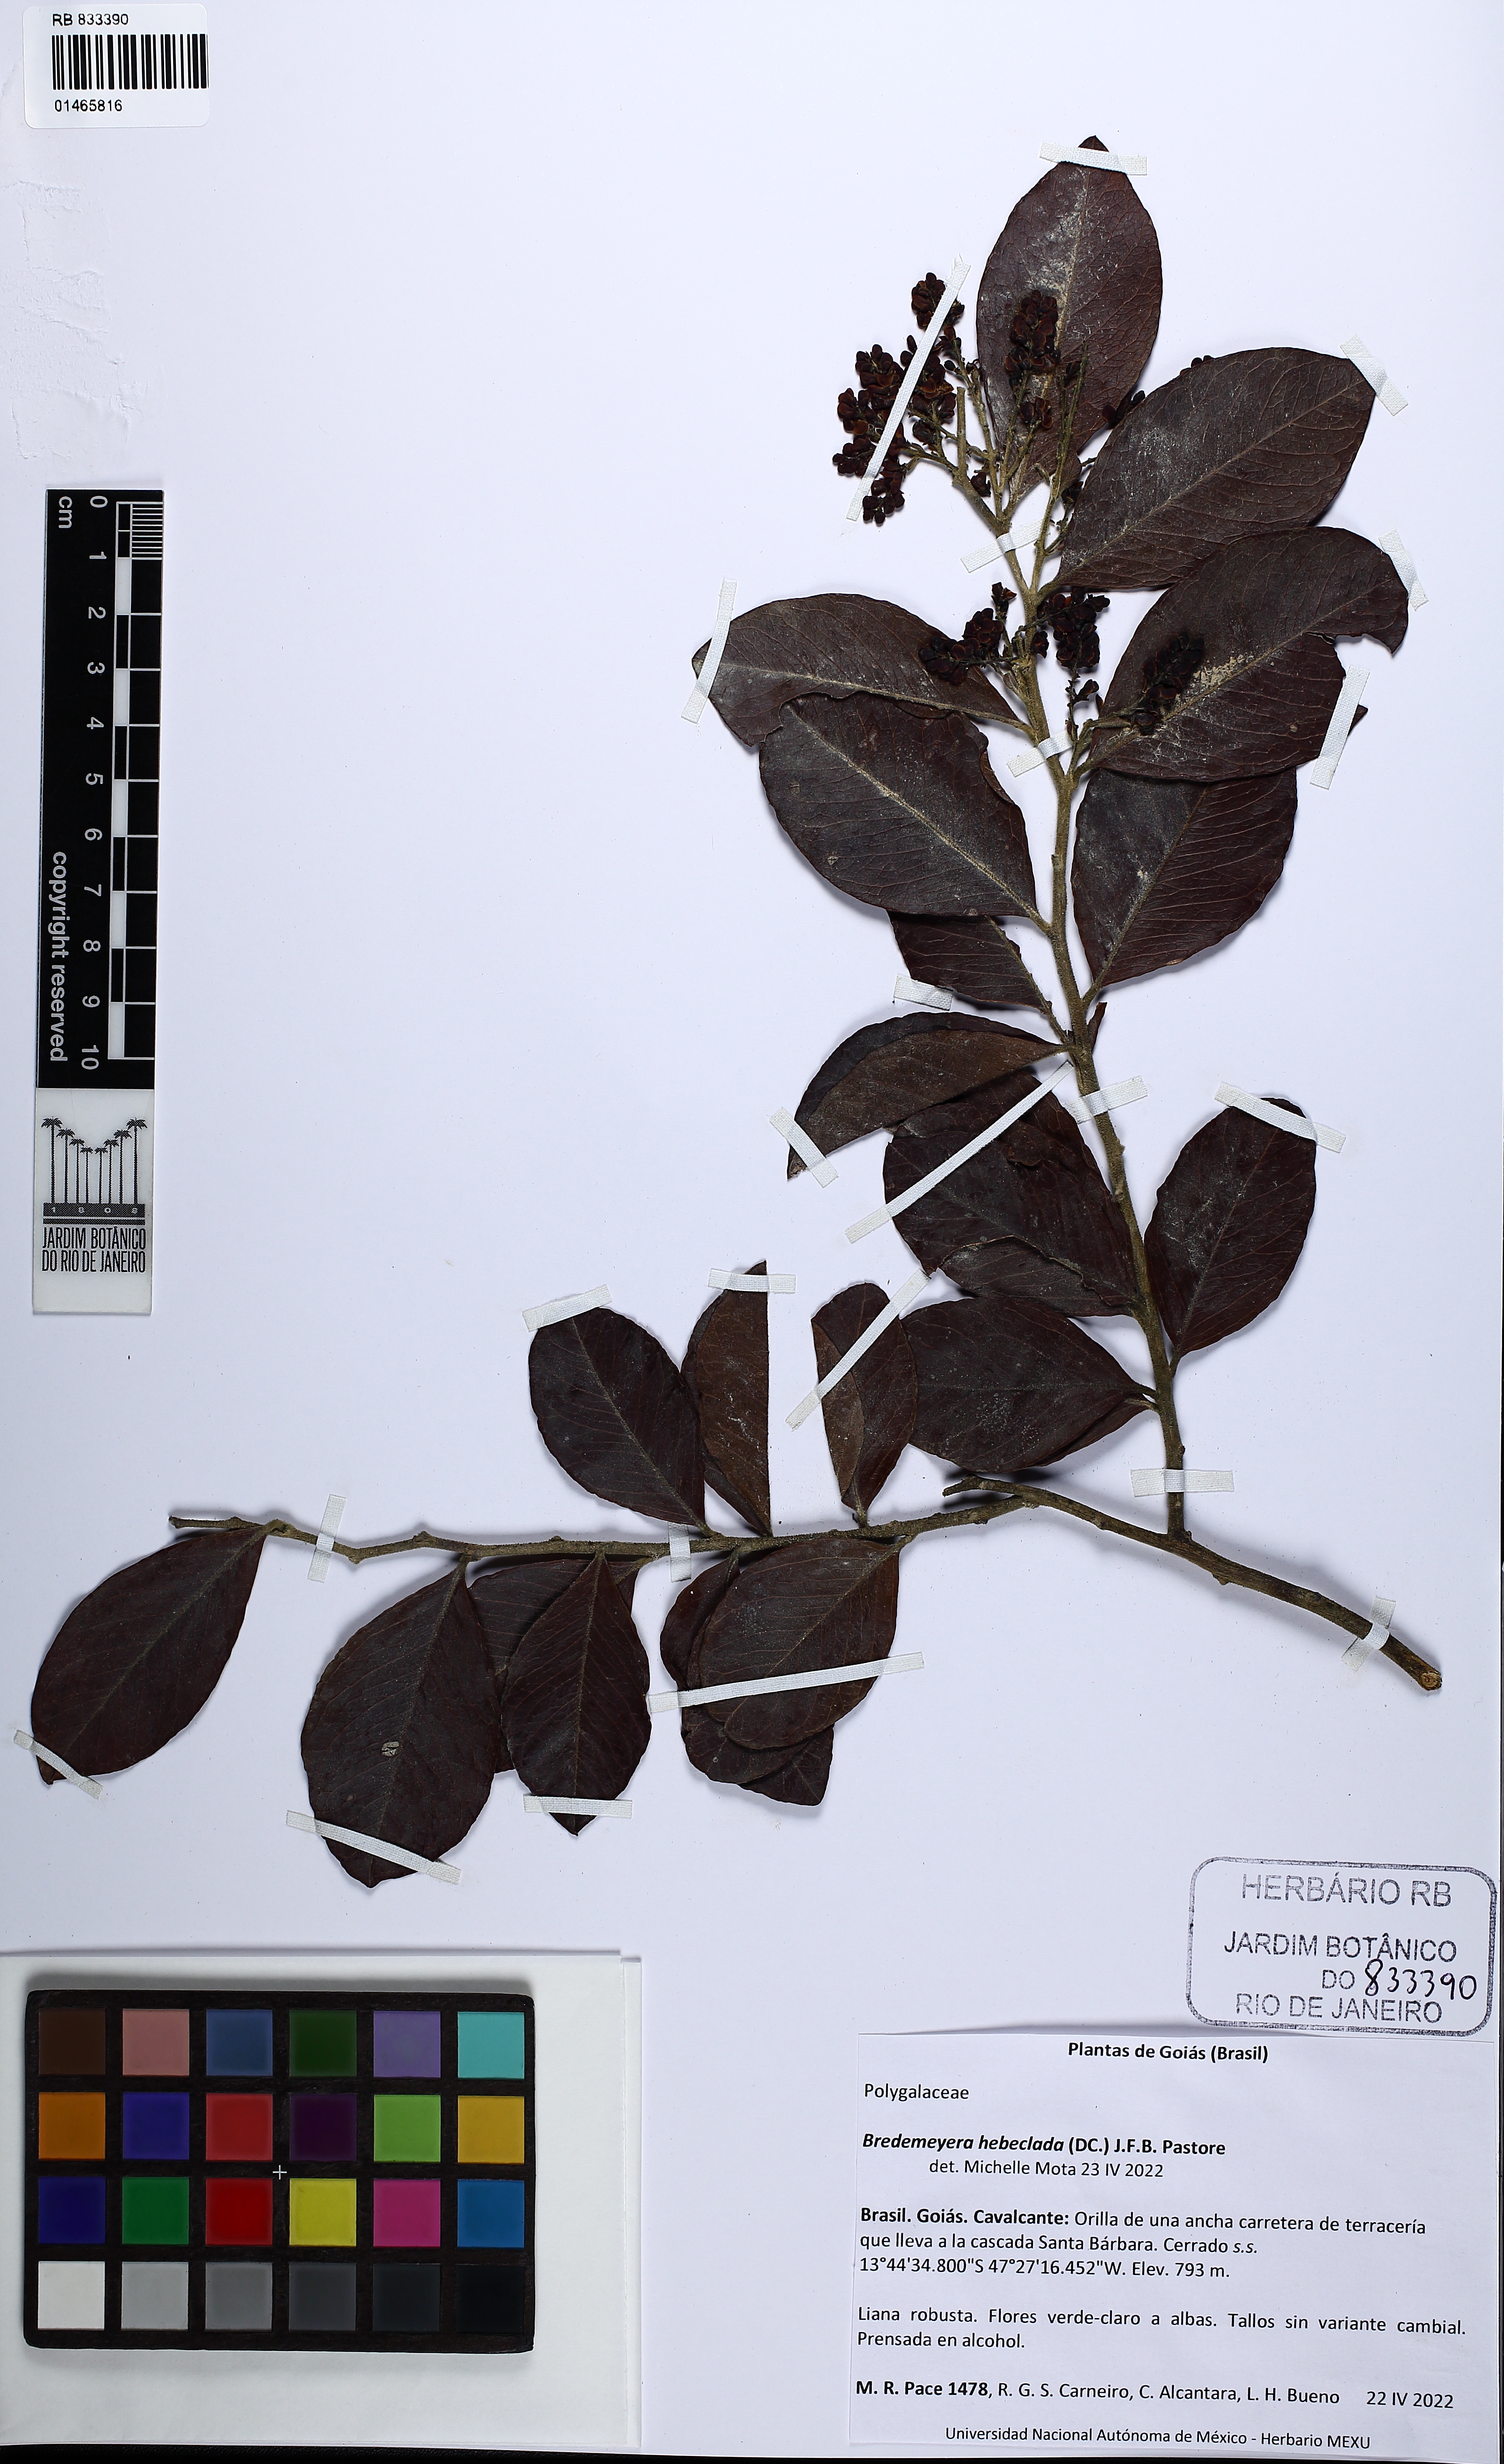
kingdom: Plantae
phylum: Tracheophyta
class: Magnoliopsida
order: Fabales
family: Polygalaceae
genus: Bredemeyera
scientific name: Bredemeyera hebeclada
